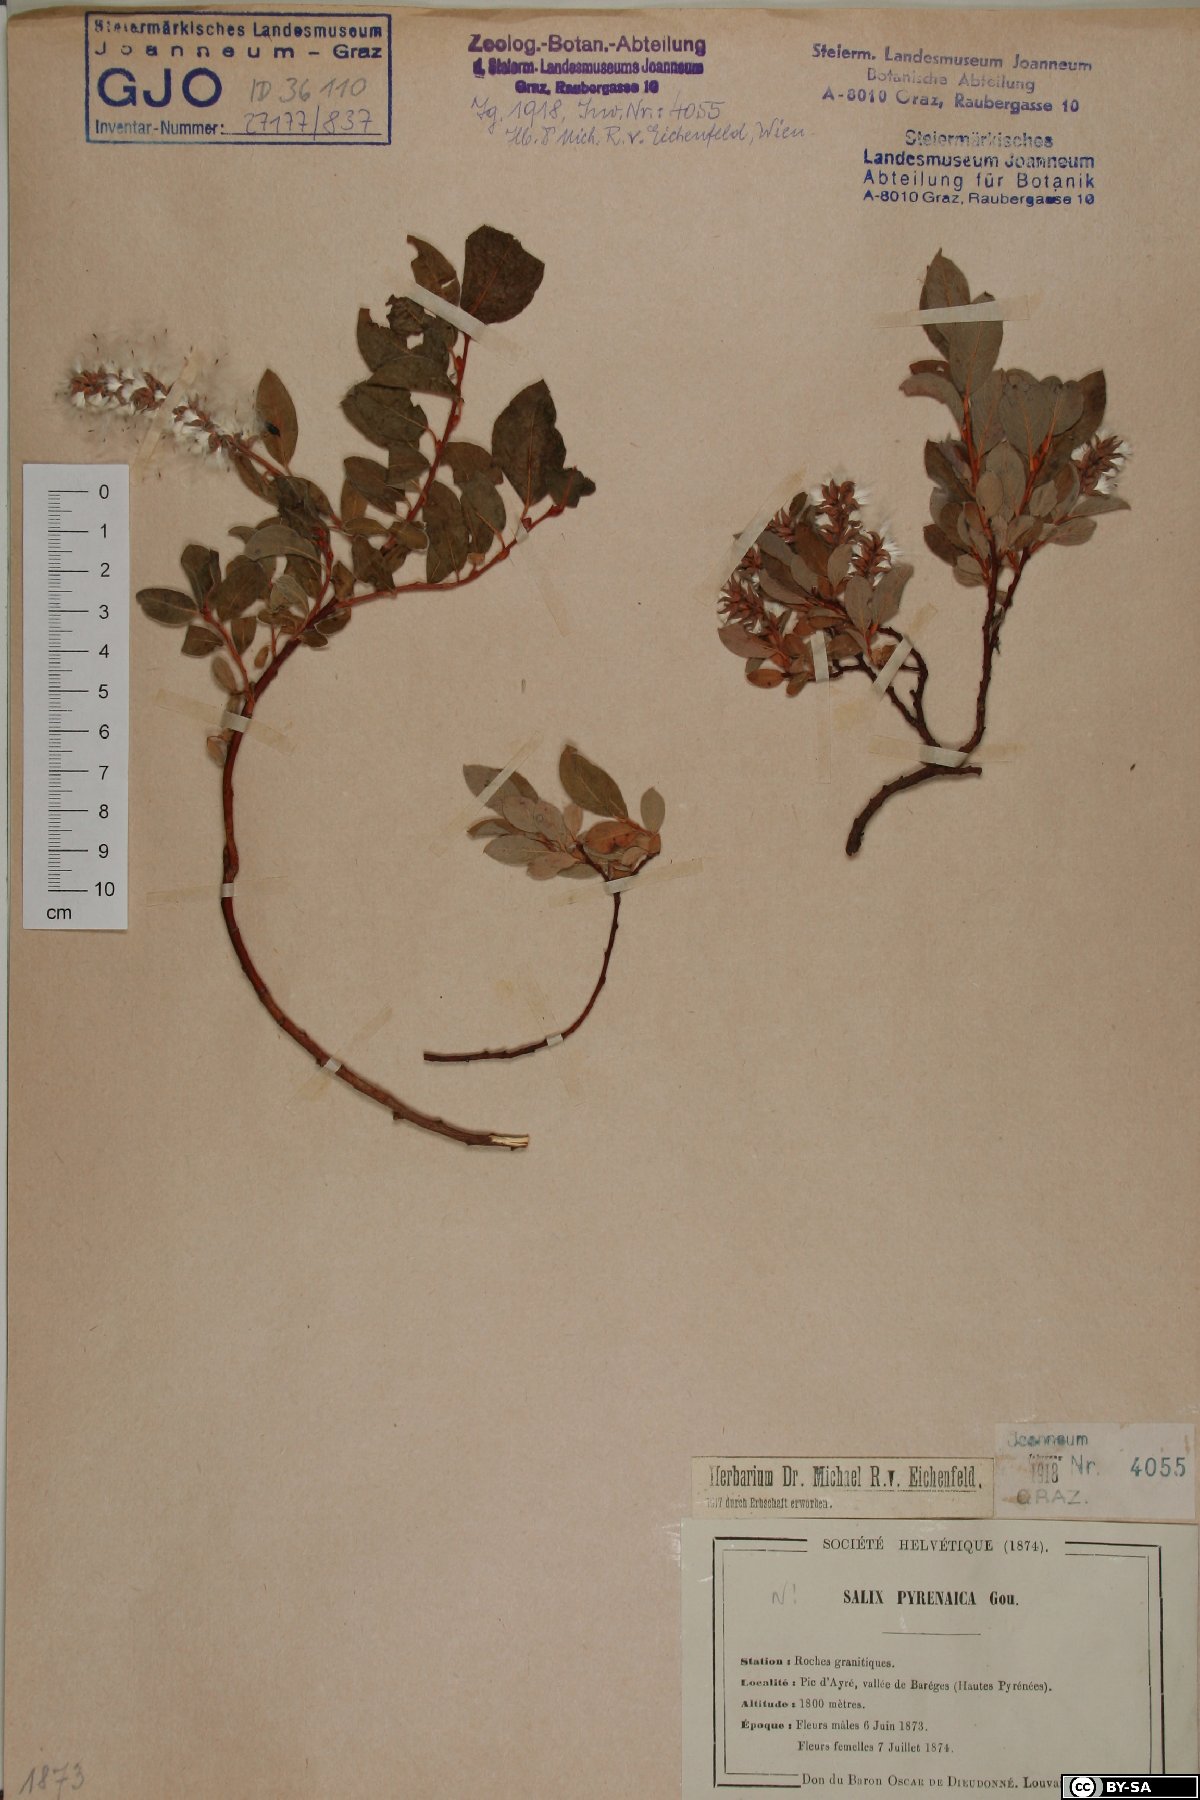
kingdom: Plantae
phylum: Tracheophyta
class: Magnoliopsida
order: Malpighiales
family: Salicaceae
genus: Salix
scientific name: Salix pyrenaica
